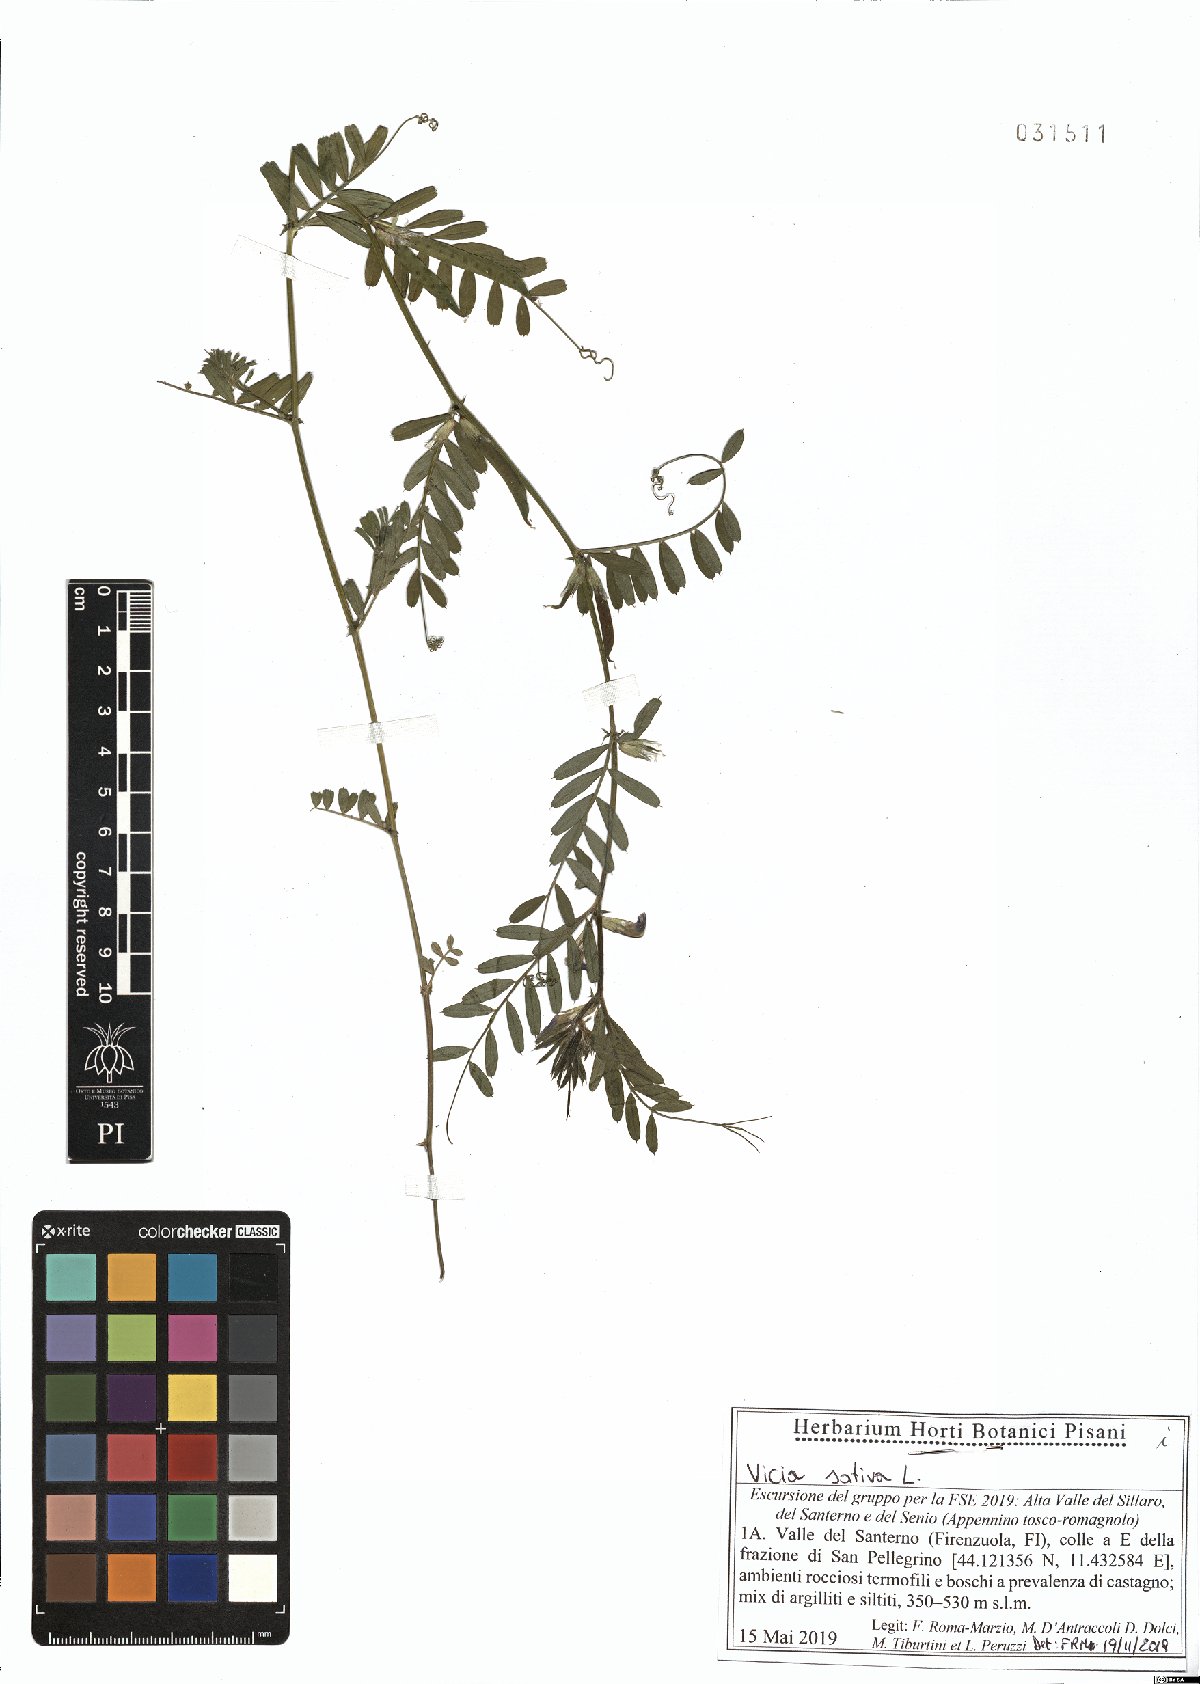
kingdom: Plantae
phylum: Tracheophyta
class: Magnoliopsida
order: Fabales
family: Fabaceae
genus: Vicia
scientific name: Vicia sativa
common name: Garden vetch
